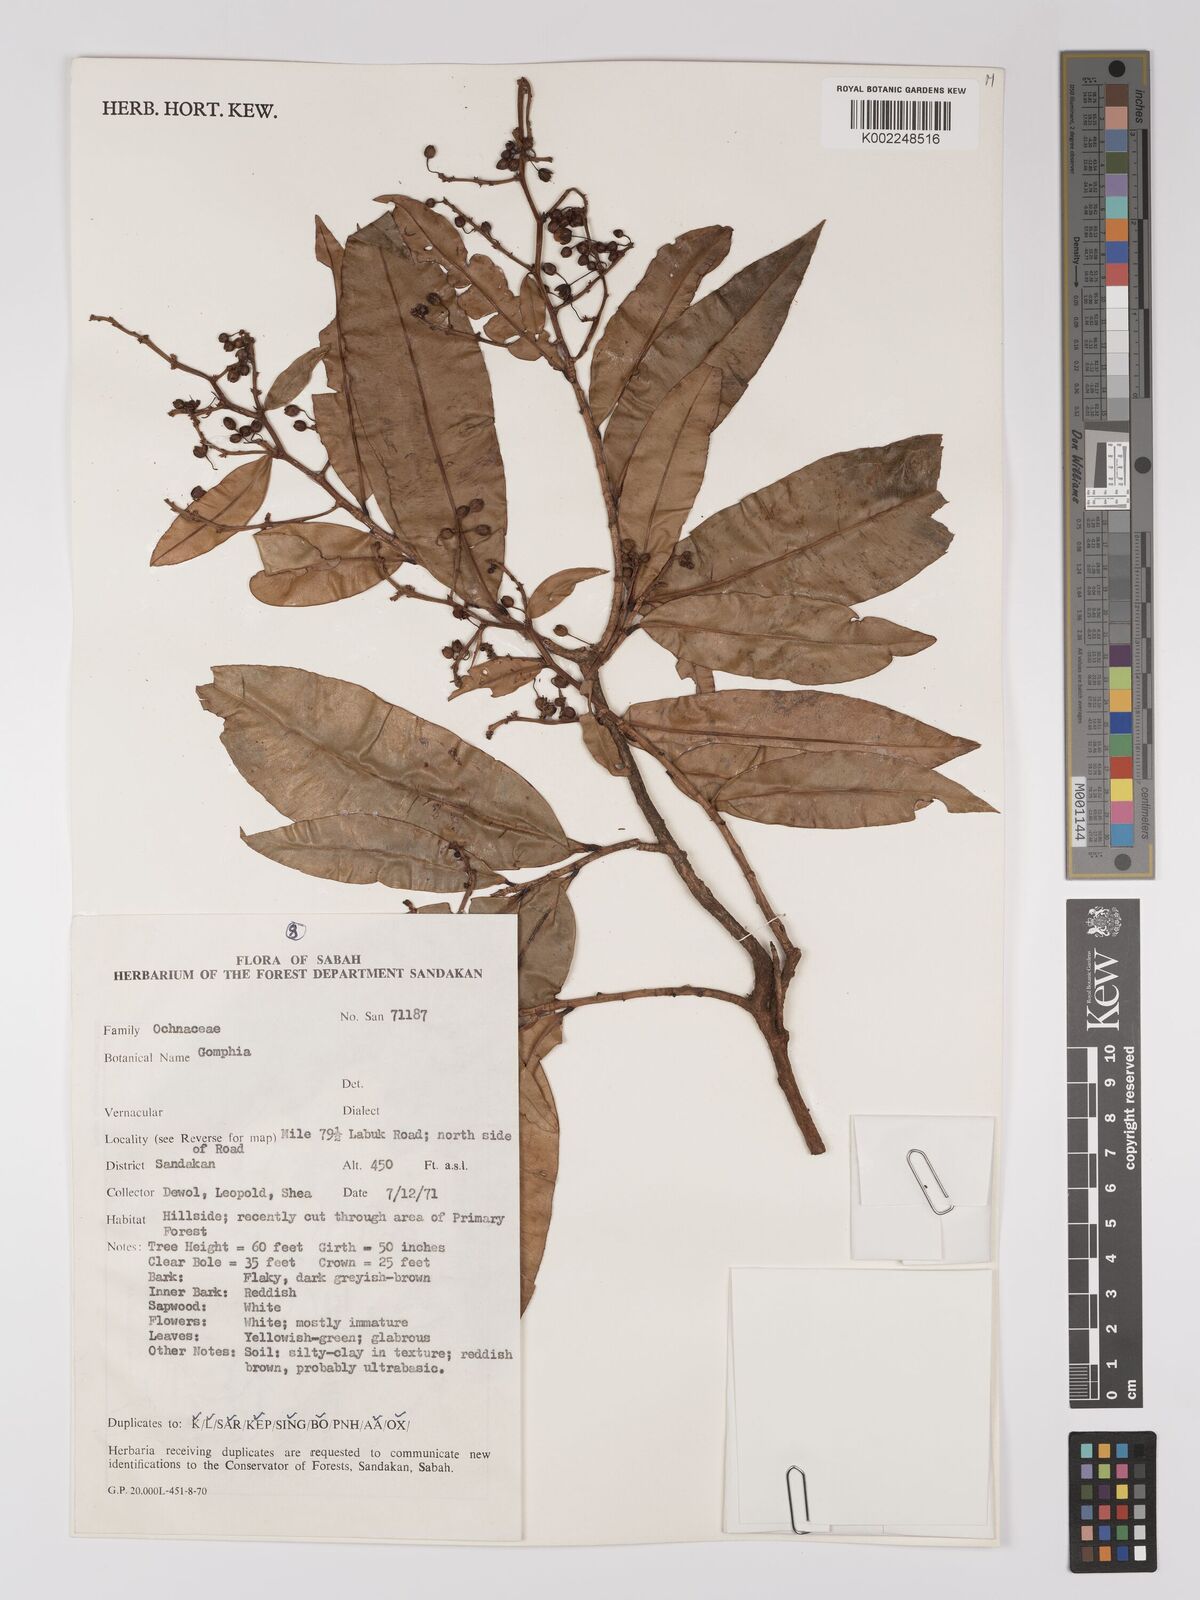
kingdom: Plantae
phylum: Tracheophyta
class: Magnoliopsida
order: Malpighiales
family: Ochnaceae
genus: Gomphia
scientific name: Gomphia serrata
